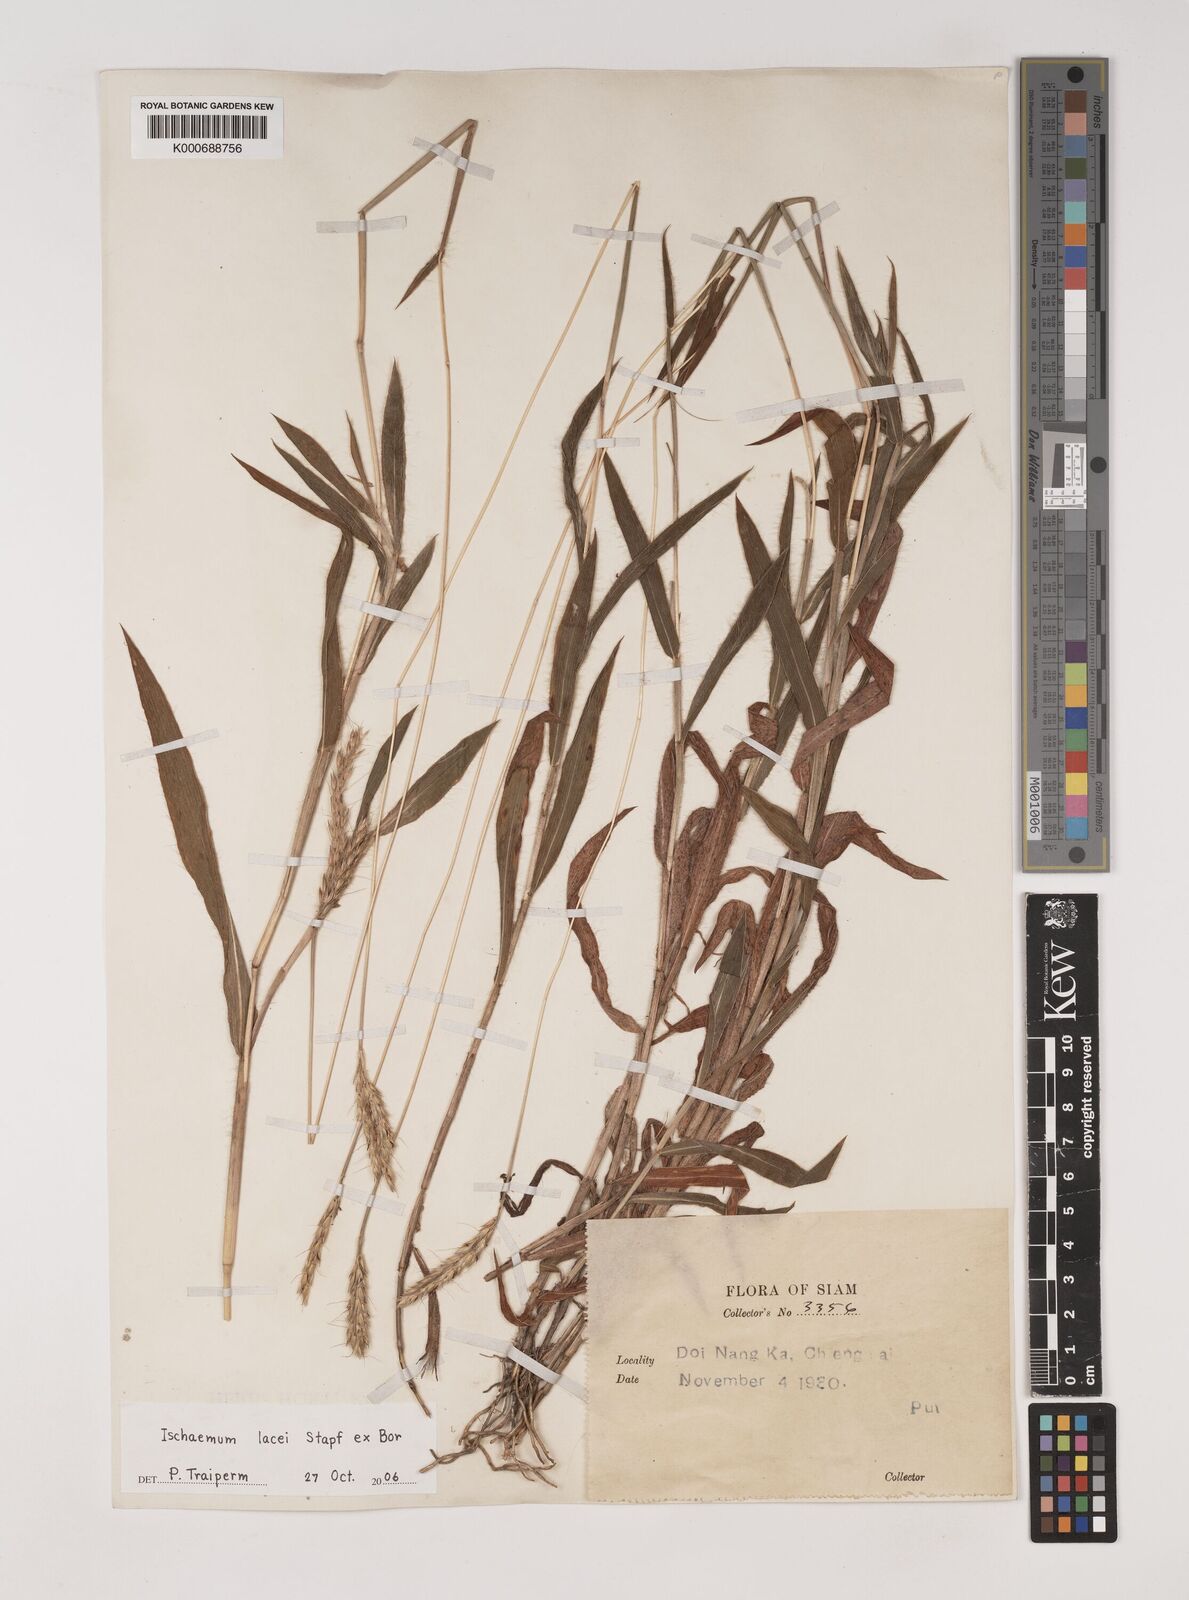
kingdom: Plantae
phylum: Tracheophyta
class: Liliopsida
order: Poales
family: Poaceae
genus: Ischaemum
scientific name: Ischaemum polystachyum
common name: Paddle grass
